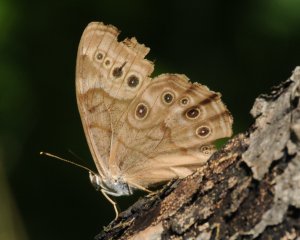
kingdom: Animalia
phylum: Arthropoda
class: Insecta
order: Lepidoptera
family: Nymphalidae
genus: Lethe
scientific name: Lethe anthedon
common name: Northern Pearly-Eye
